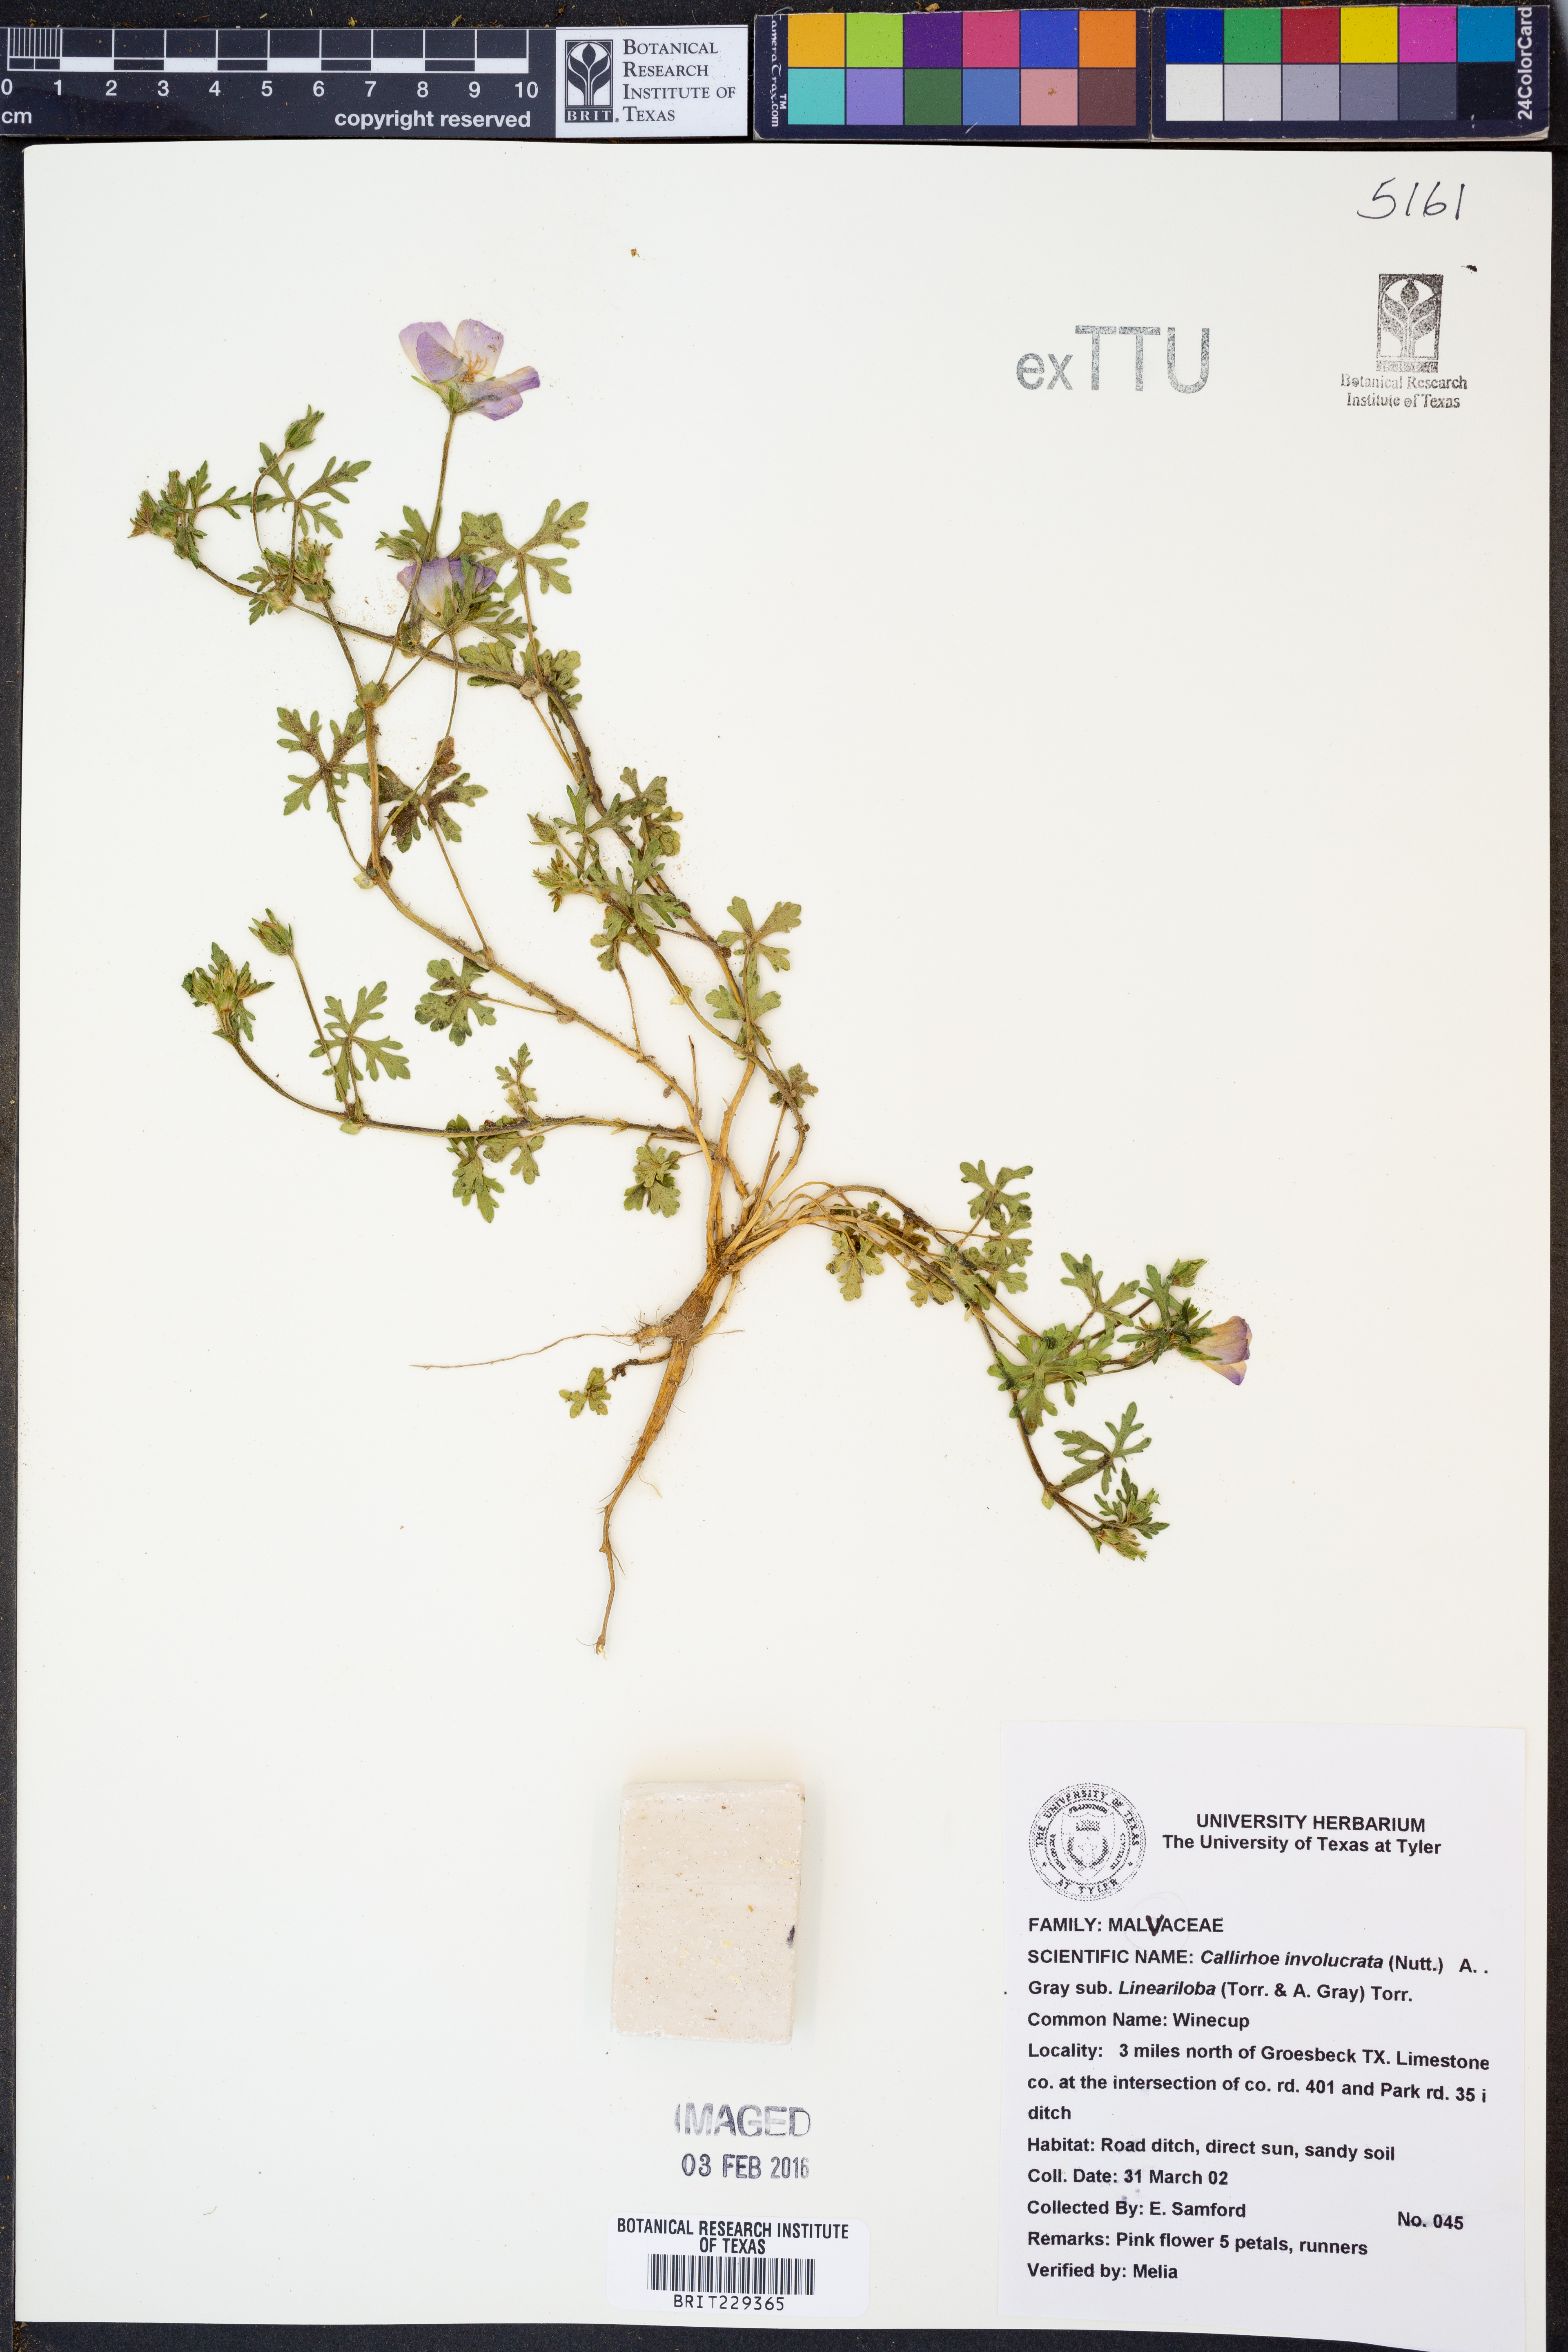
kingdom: Plantae
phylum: Tracheophyta
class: Magnoliopsida
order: Malvales
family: Malvaceae
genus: Callirhoe
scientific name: Callirhoe involucrata
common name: Purple poppy-mallow
